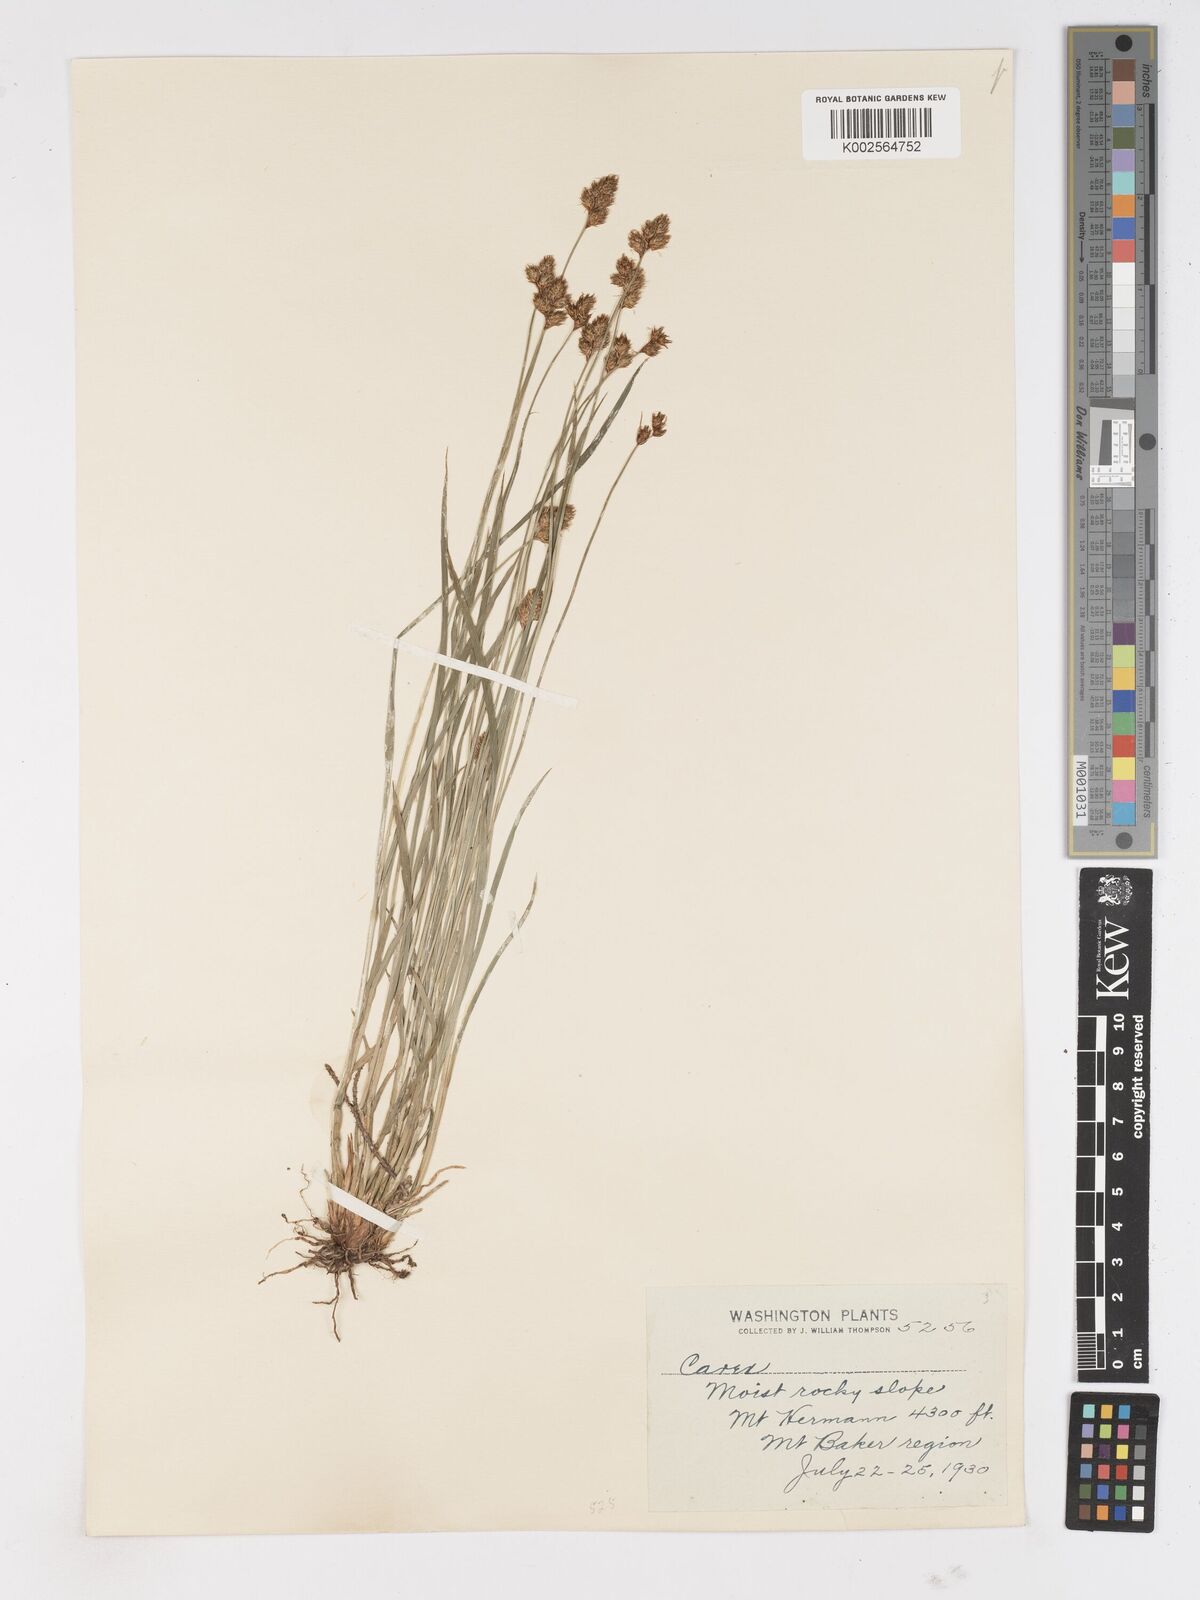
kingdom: Plantae
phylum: Tracheophyta
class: Liliopsida
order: Poales
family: Cyperaceae
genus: Carex
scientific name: Carex
